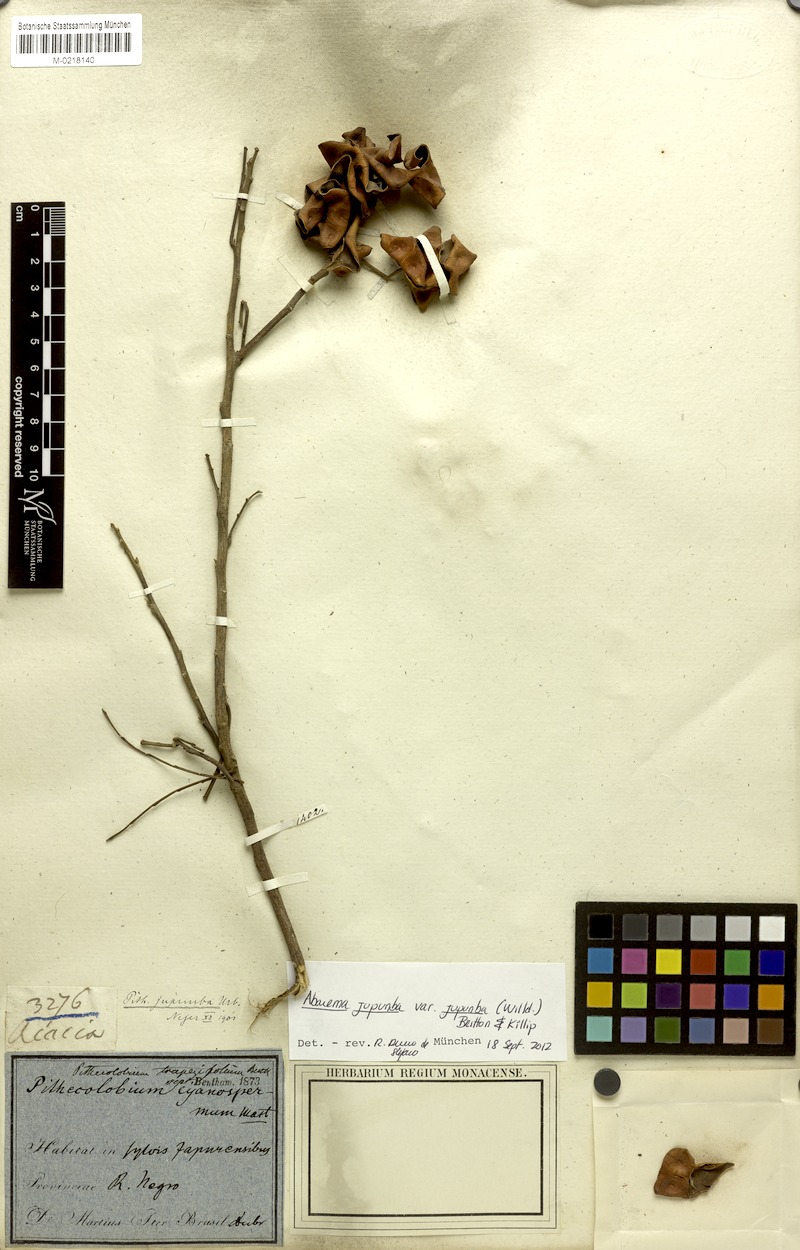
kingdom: Plantae
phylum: Tracheophyta
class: Magnoliopsida
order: Fabales
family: Fabaceae
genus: Jupunba
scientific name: Jupunba trapezifolia
